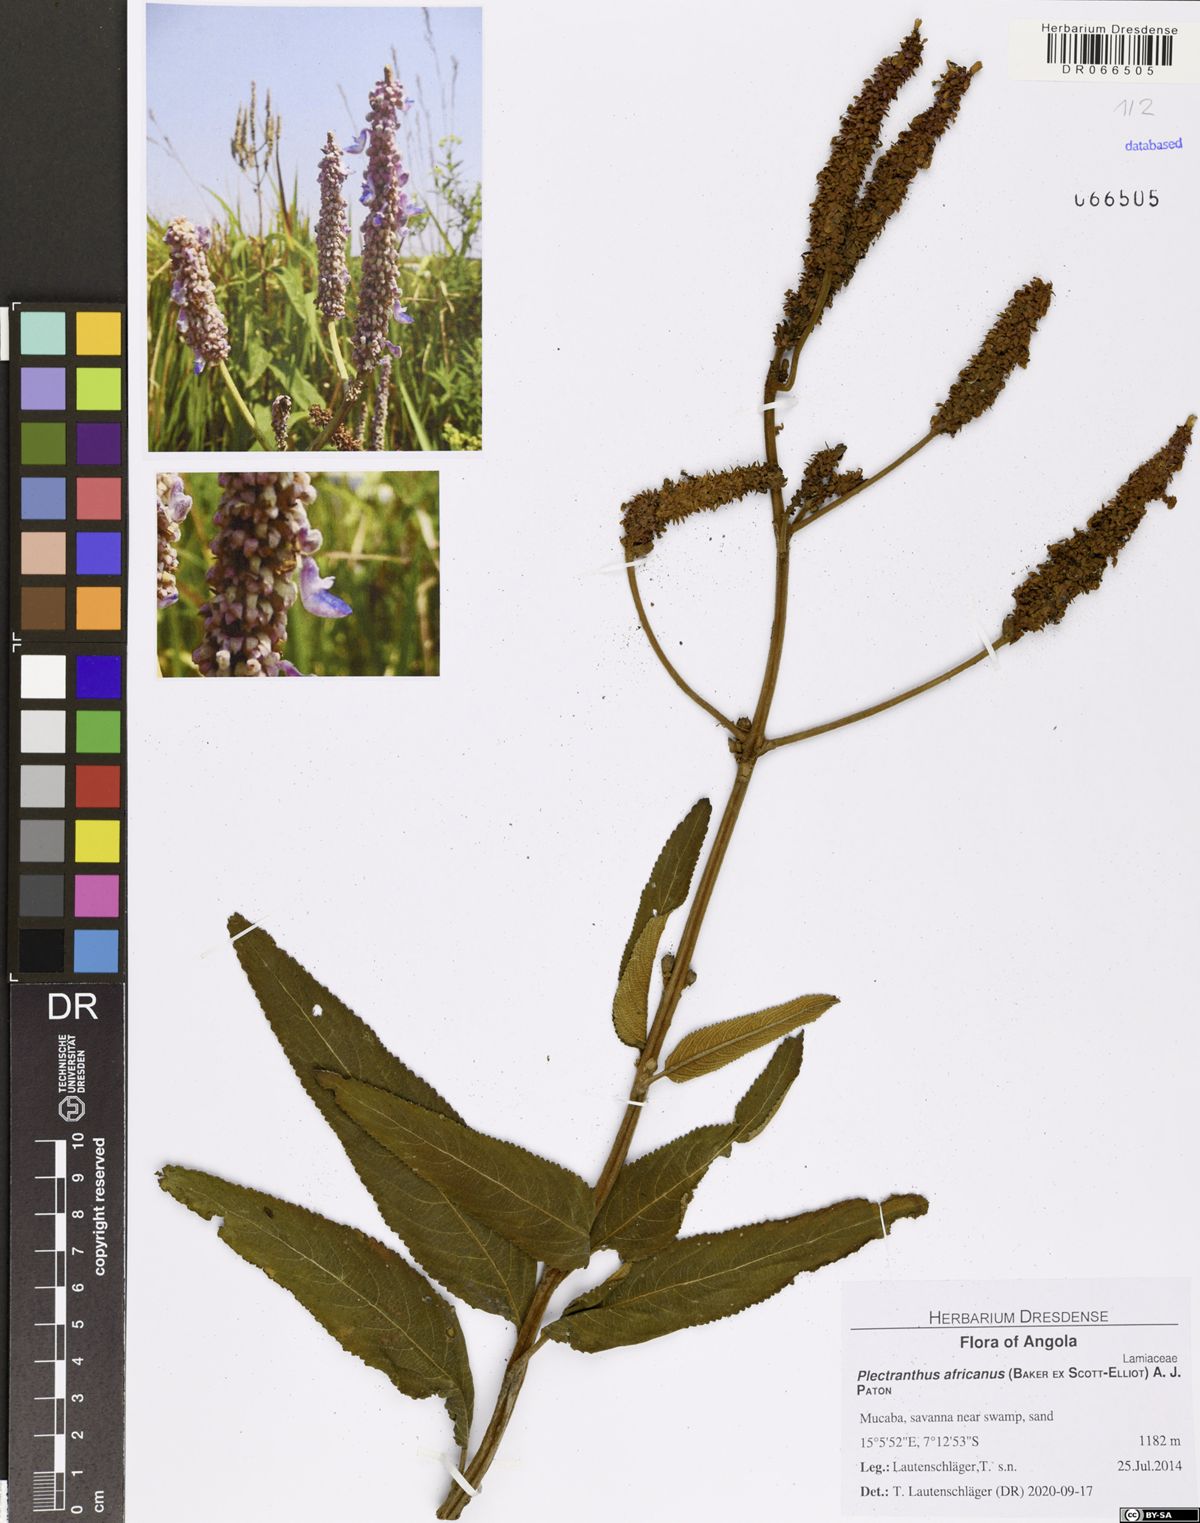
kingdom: Plantae
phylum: Tracheophyta
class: Magnoliopsida
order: Lamiales
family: Lamiaceae
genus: Coleus
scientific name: Coleus engleri
